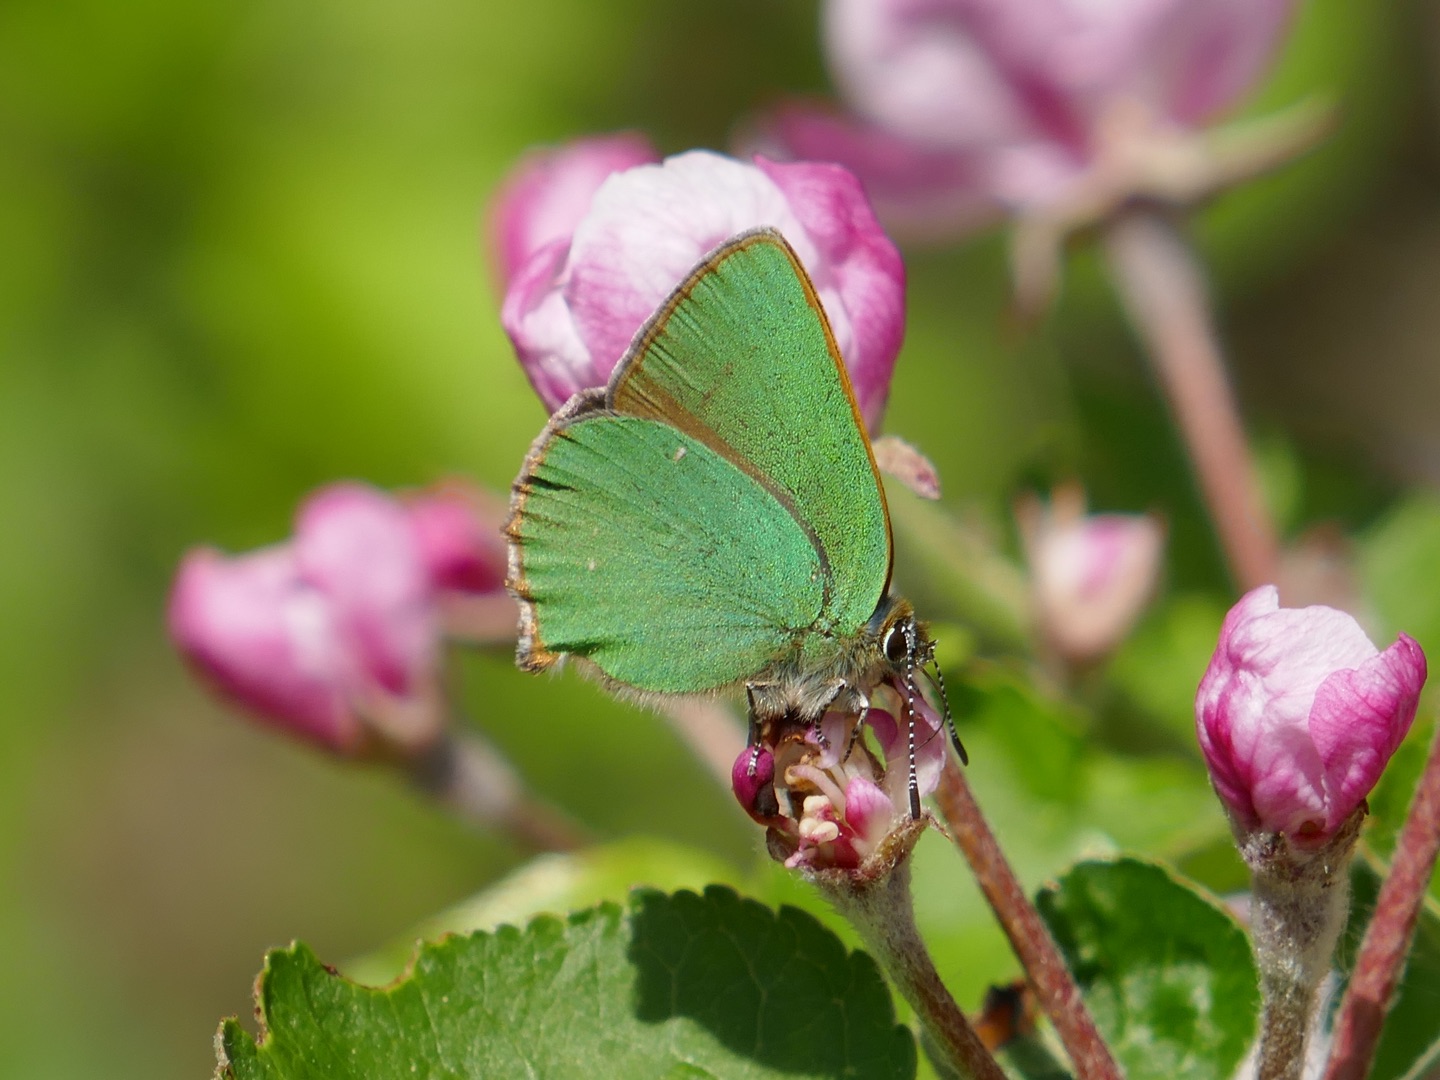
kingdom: Animalia
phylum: Arthropoda
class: Insecta
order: Lepidoptera
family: Lycaenidae
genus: Callophrys
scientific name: Callophrys rubi
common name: Grøn busksommerfugl
